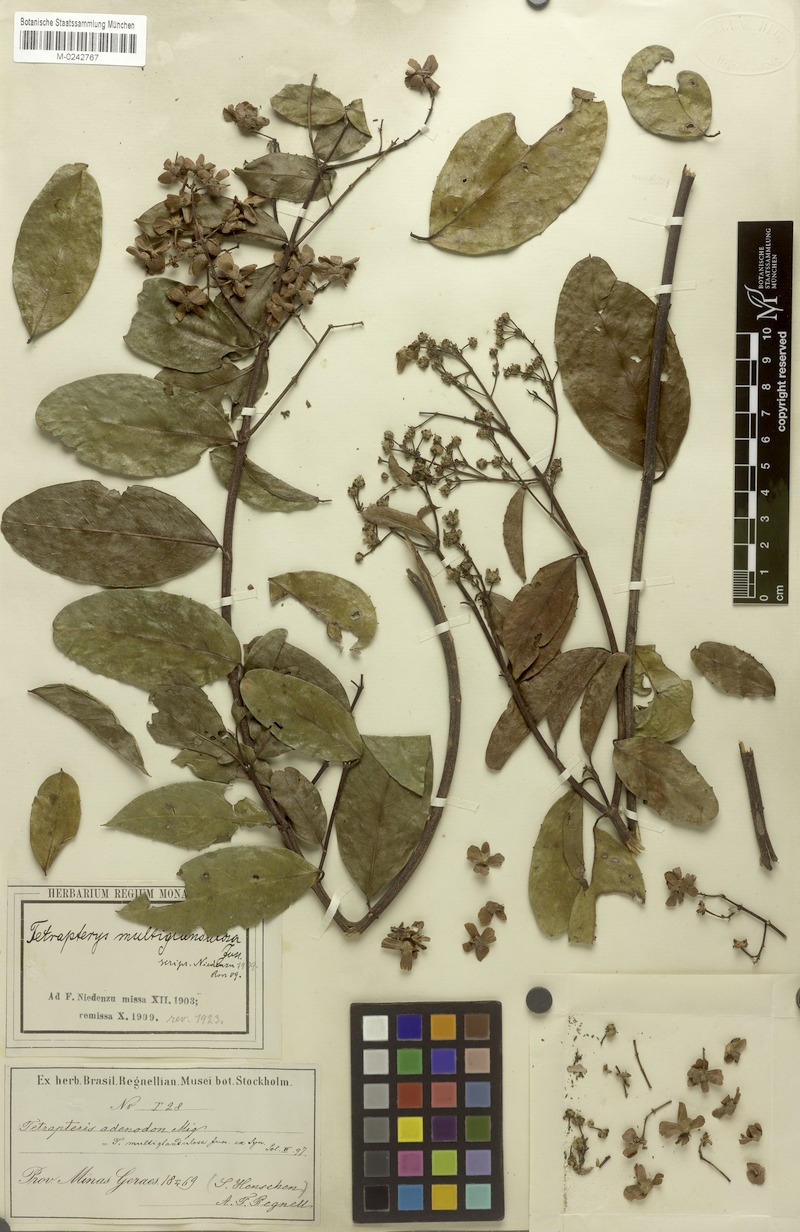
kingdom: Plantae
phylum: Tracheophyta
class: Magnoliopsida
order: Malpighiales
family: Malpighiaceae
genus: Niedenzuella
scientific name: Niedenzuella multiglandulosa
